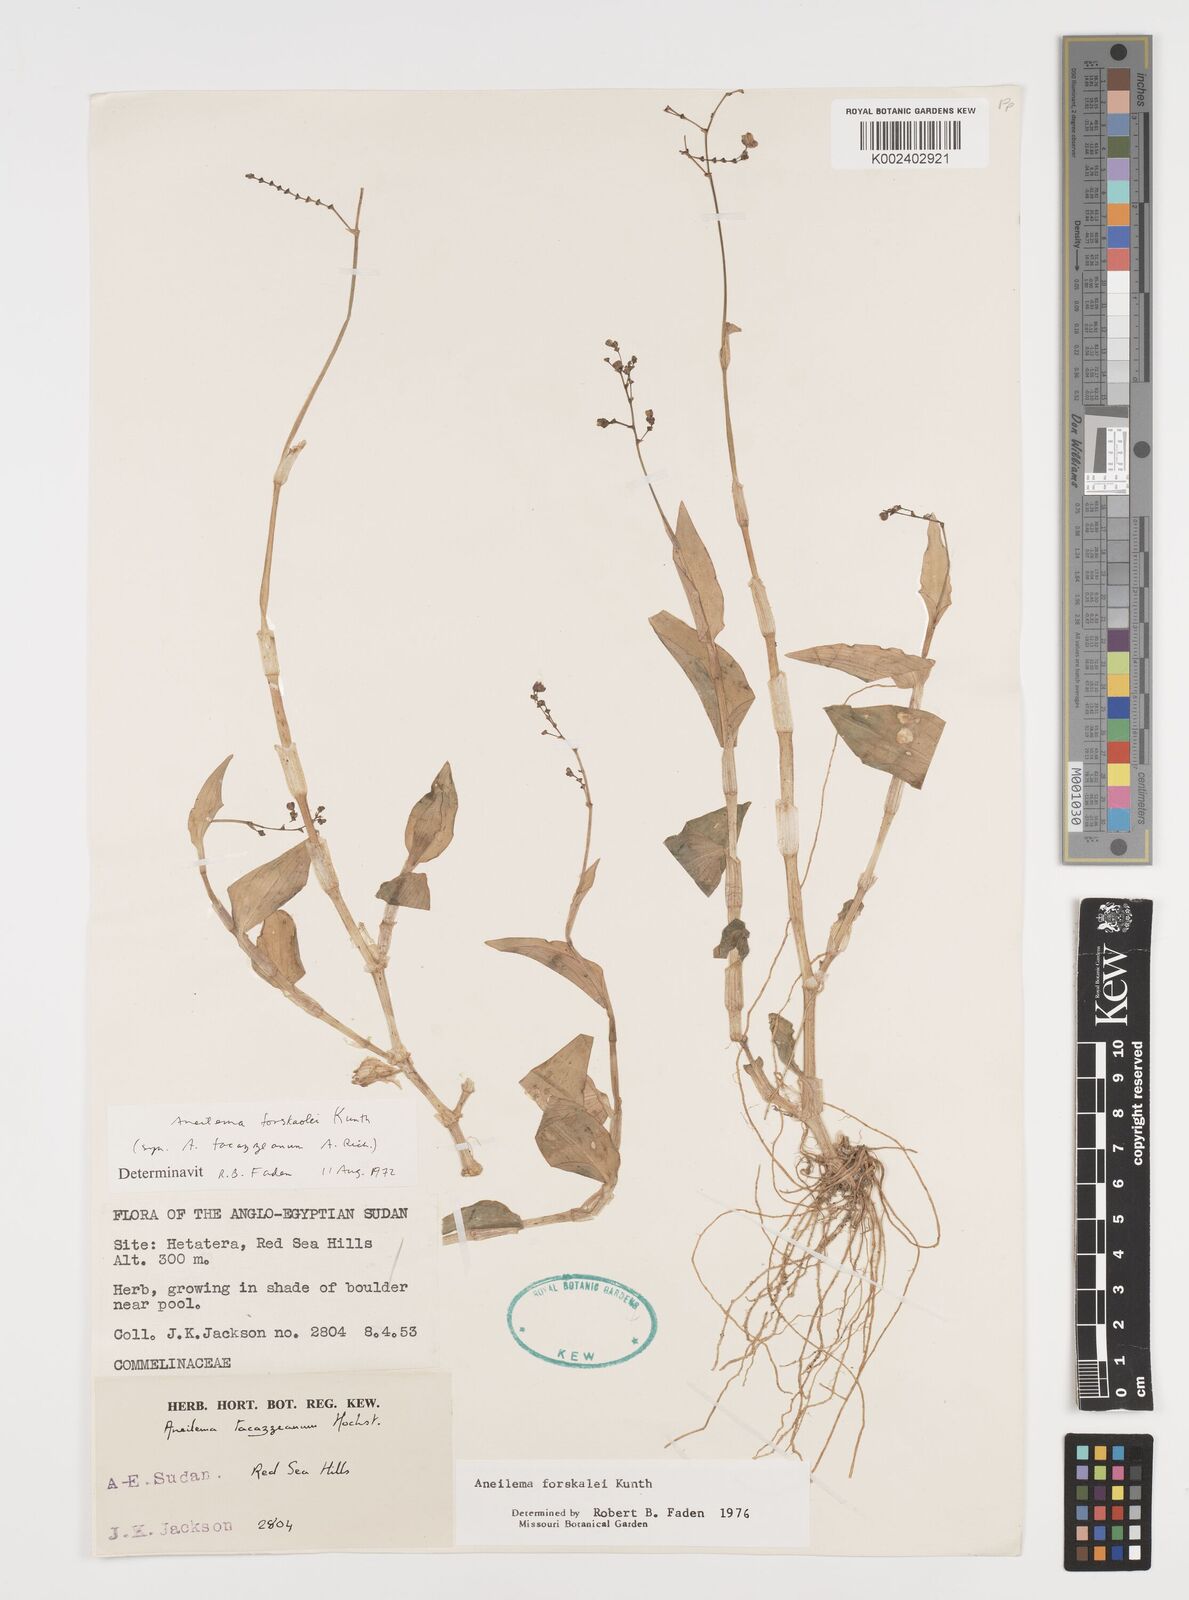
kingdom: Plantae
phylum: Tracheophyta
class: Liliopsida
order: Commelinales
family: Commelinaceae
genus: Aneilema
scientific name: Aneilema forskalii
